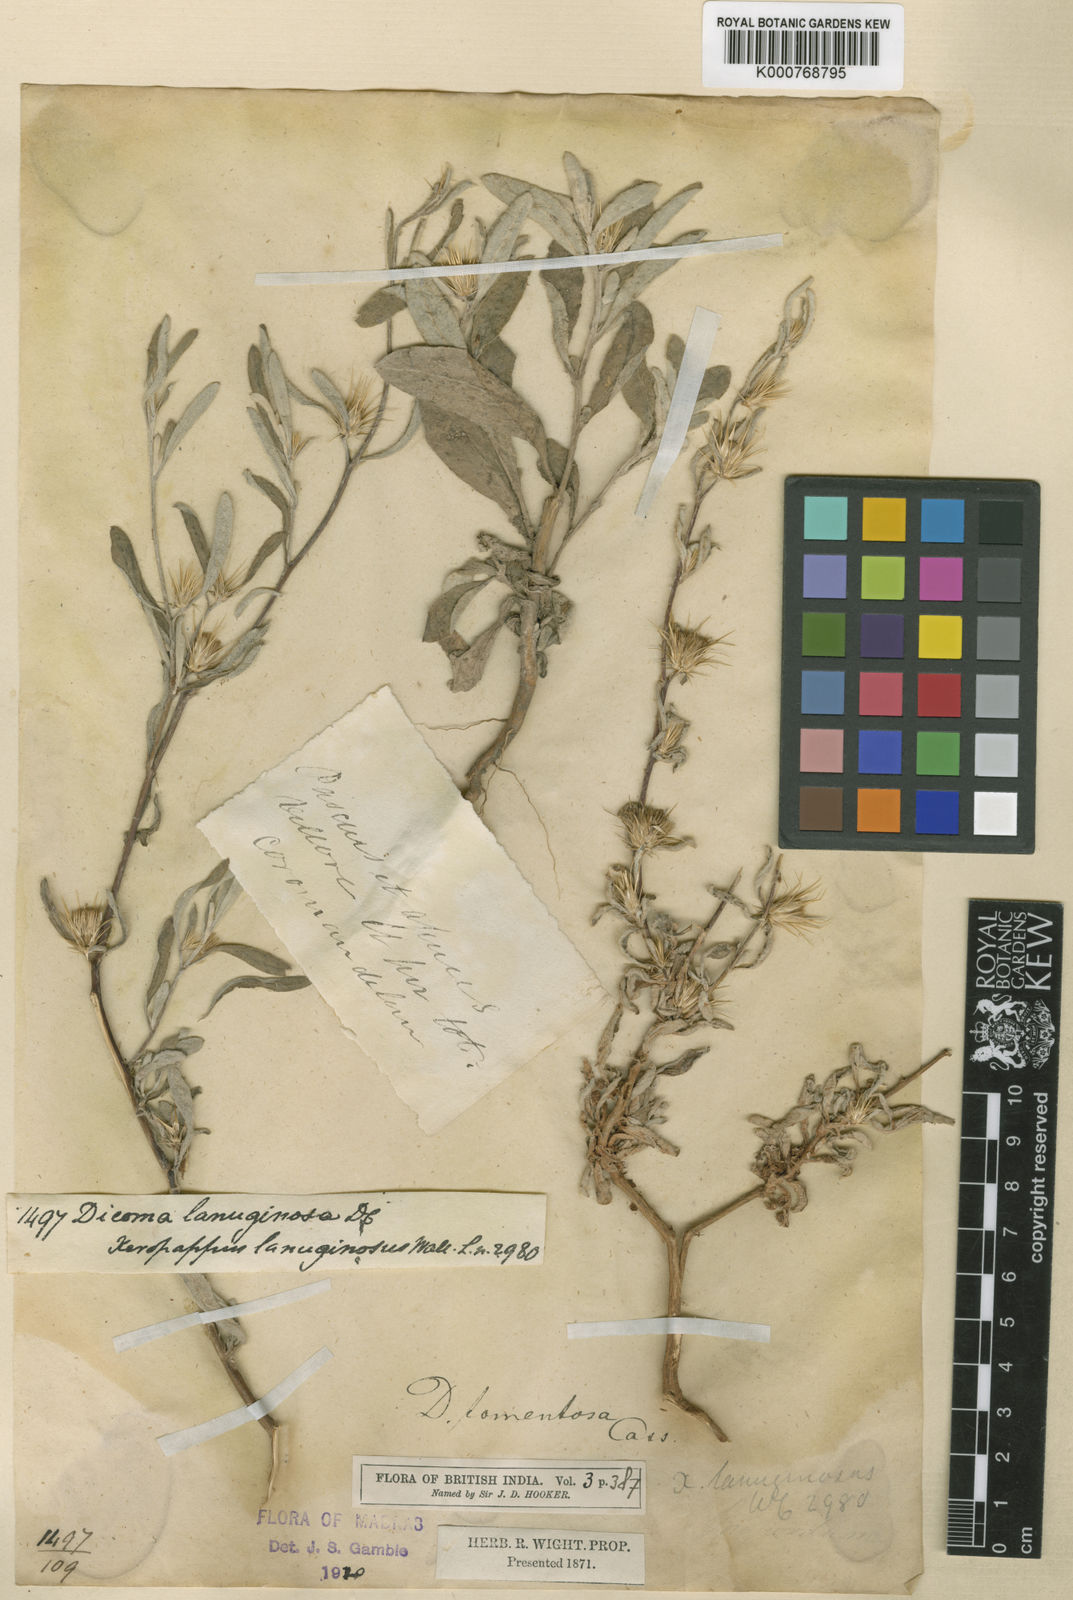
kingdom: Plantae
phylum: Tracheophyta
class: Magnoliopsida
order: Asterales
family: Asteraceae
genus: Dicoma
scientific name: Dicoma tomentosa
